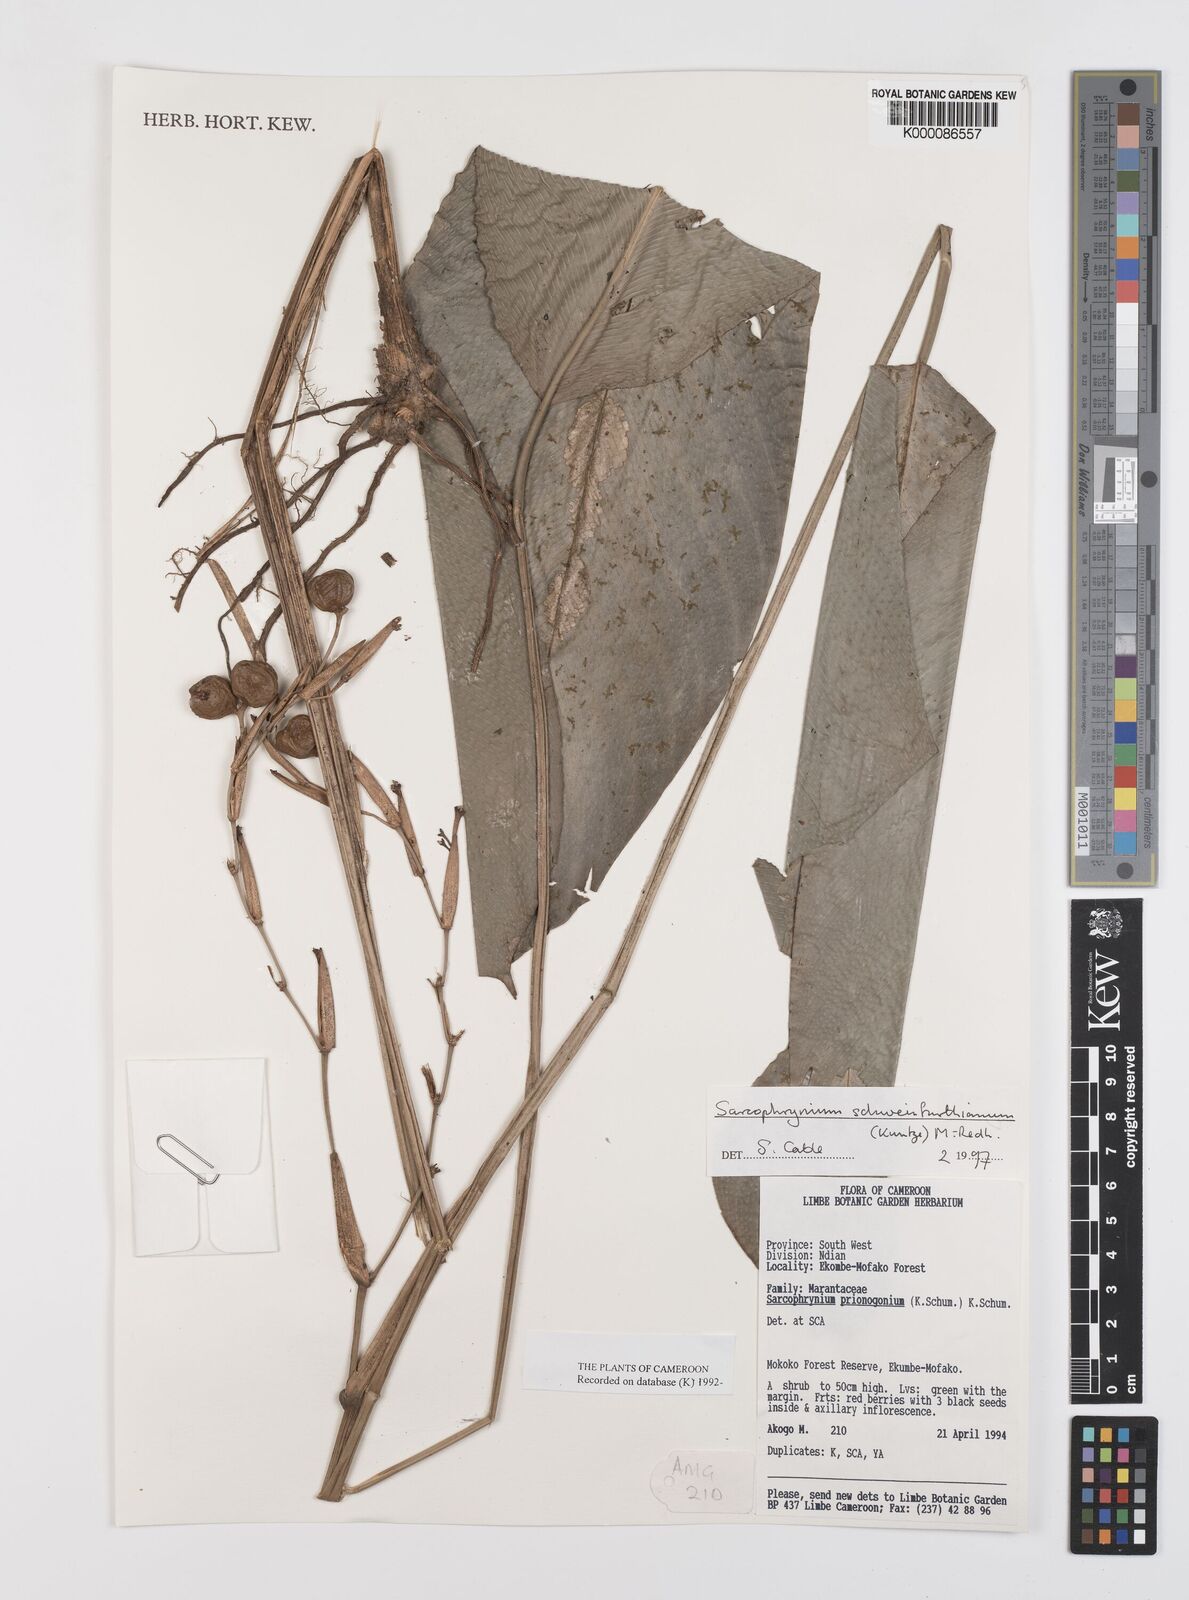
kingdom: Plantae
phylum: Tracheophyta
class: Liliopsida
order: Zingiberales
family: Marantaceae
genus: Sarcophrynium
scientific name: Sarcophrynium schweinfurthianum
